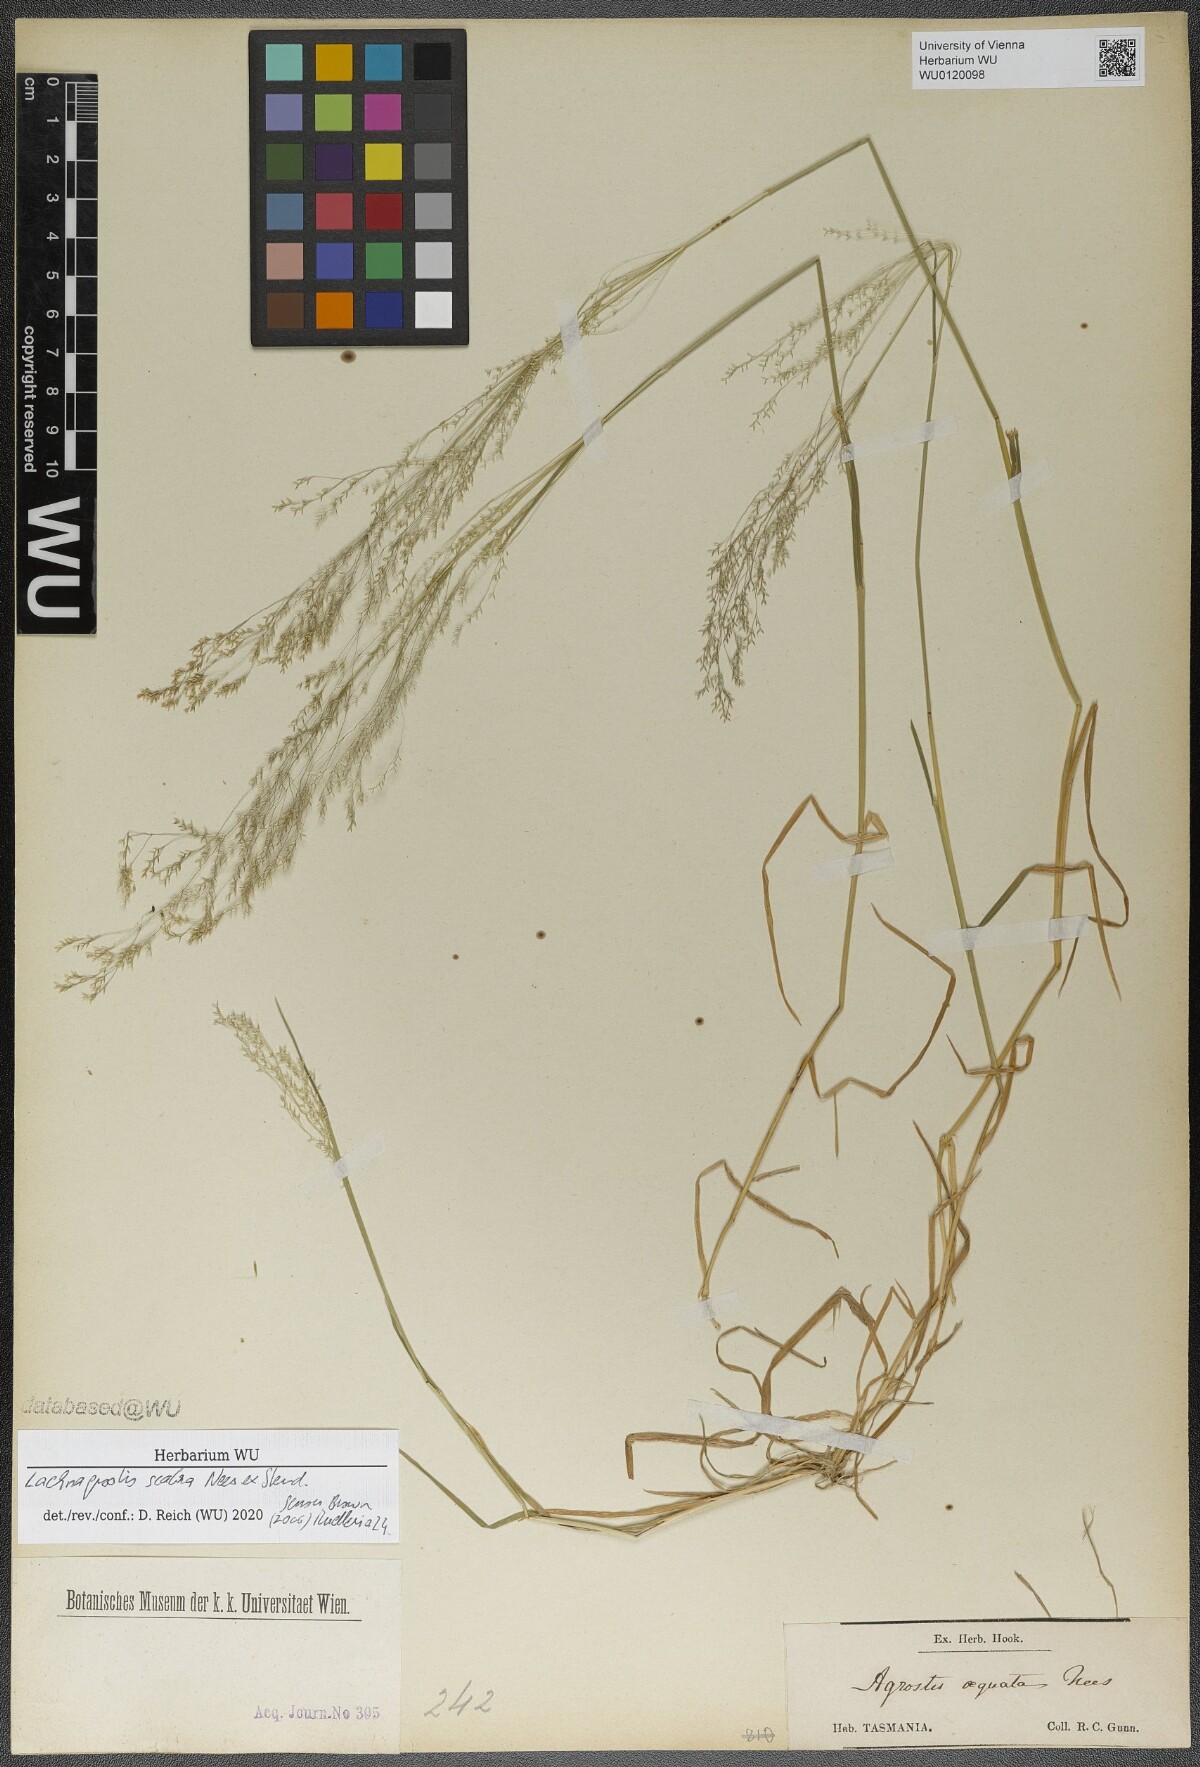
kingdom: Plantae
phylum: Tracheophyta
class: Liliopsida
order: Poales
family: Poaceae
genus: Lachnagrostis
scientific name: Lachnagrostis rudis
